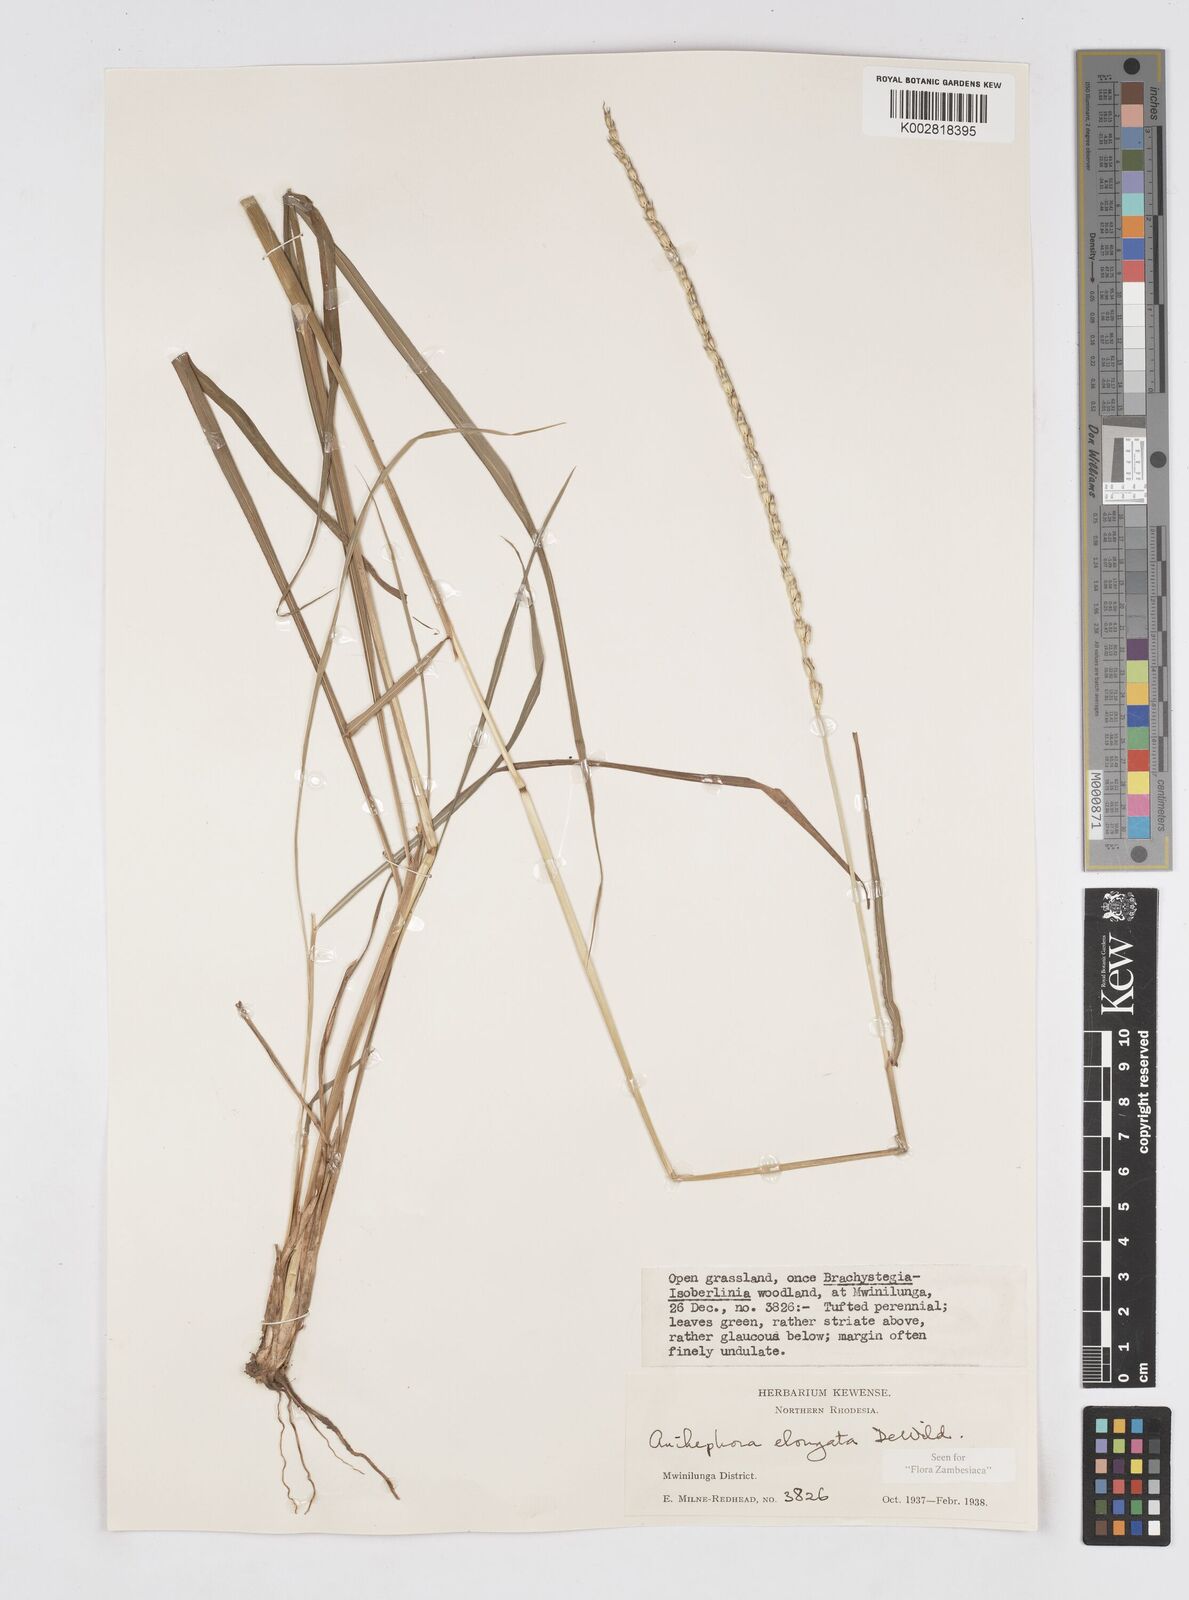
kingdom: Plantae
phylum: Tracheophyta
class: Liliopsida
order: Poales
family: Poaceae
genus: Anthephora
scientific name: Anthephora elongata
